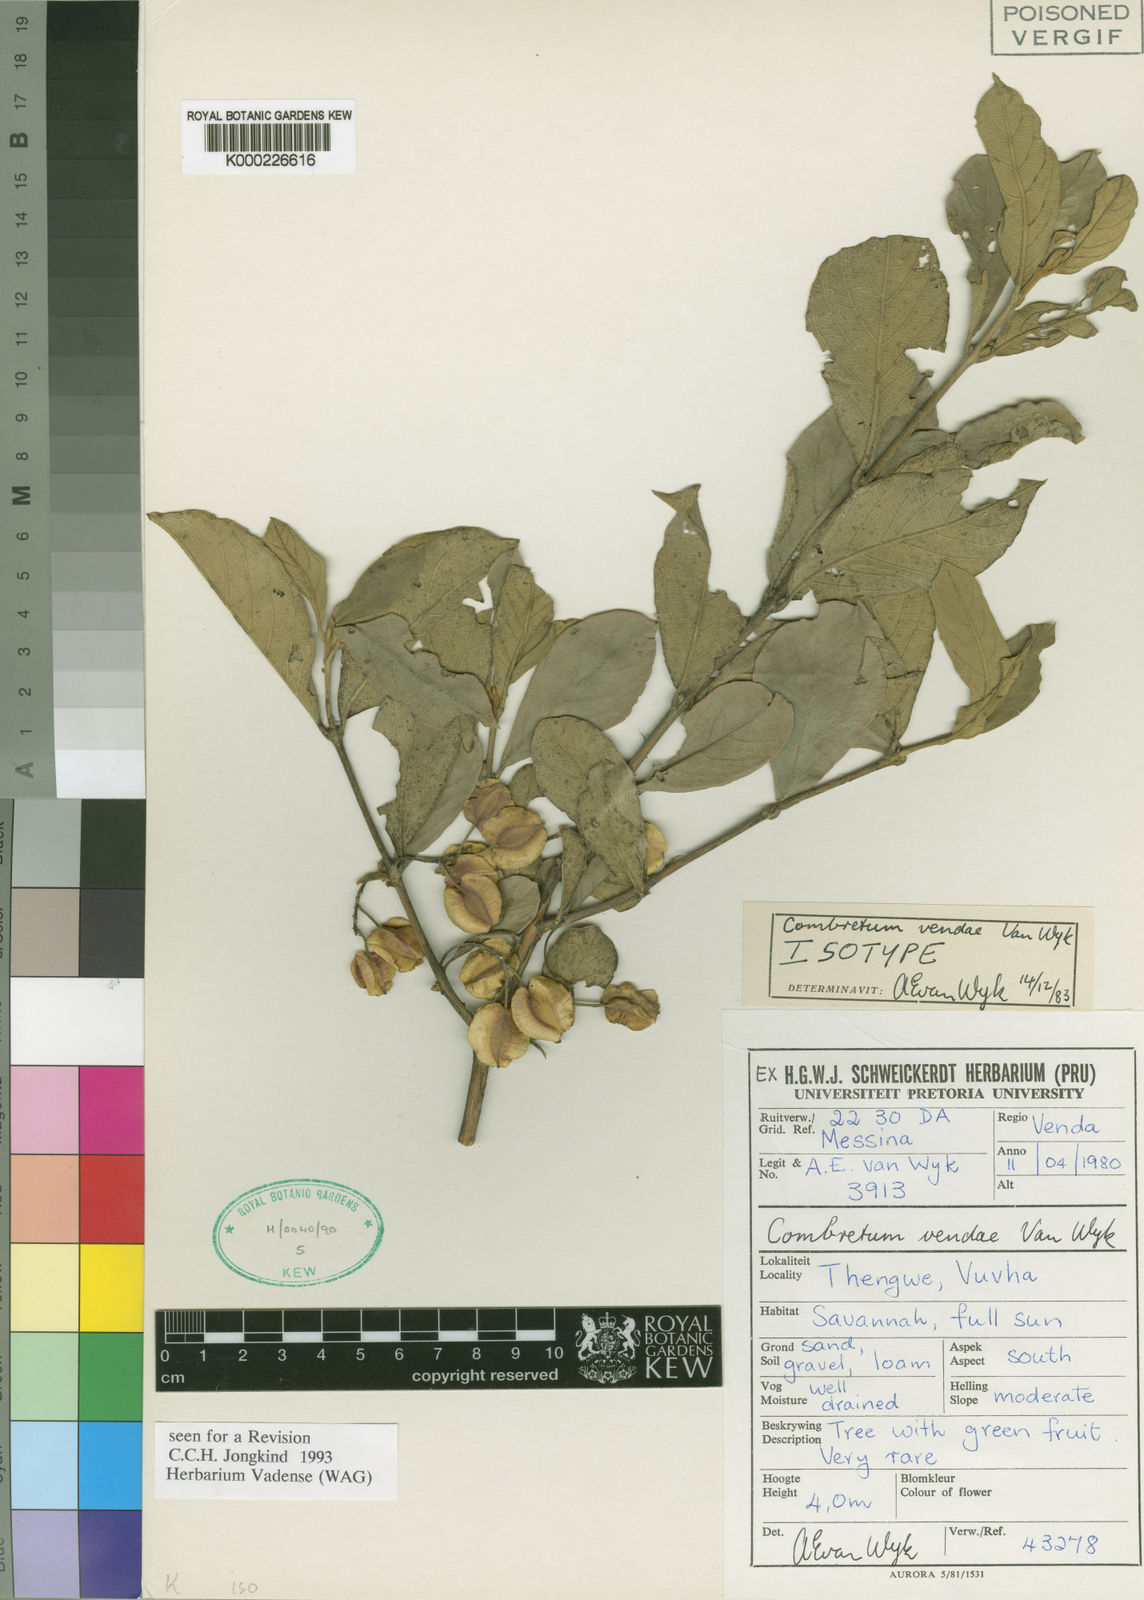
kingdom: Plantae
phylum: Tracheophyta
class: Magnoliopsida
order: Myrtales
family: Combretaceae
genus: Combretum
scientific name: Combretum vendae
